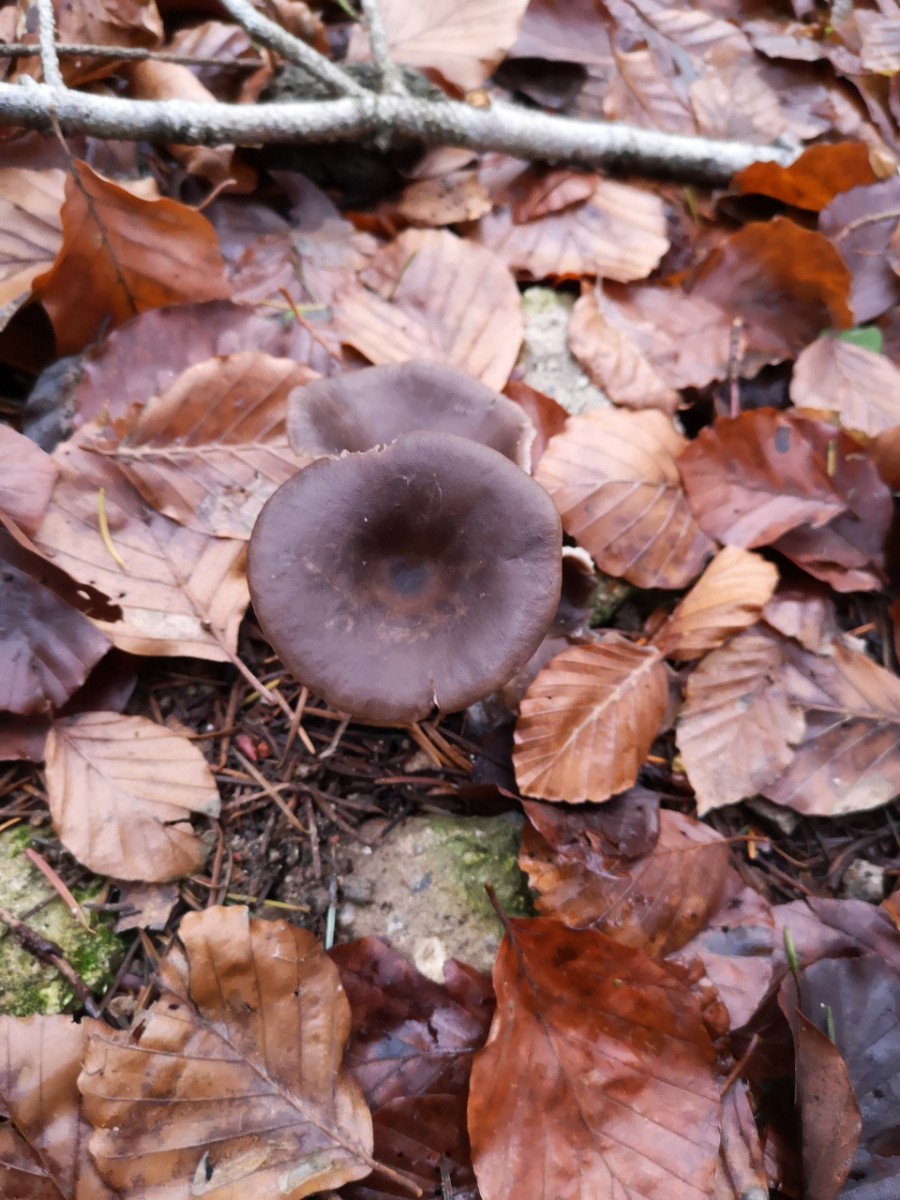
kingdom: Fungi
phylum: Basidiomycota
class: Agaricomycetes
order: Agaricales
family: Pseudoclitocybaceae
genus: Pseudoclitocybe
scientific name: Pseudoclitocybe cyathiformis
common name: almindelig bægertragthat
